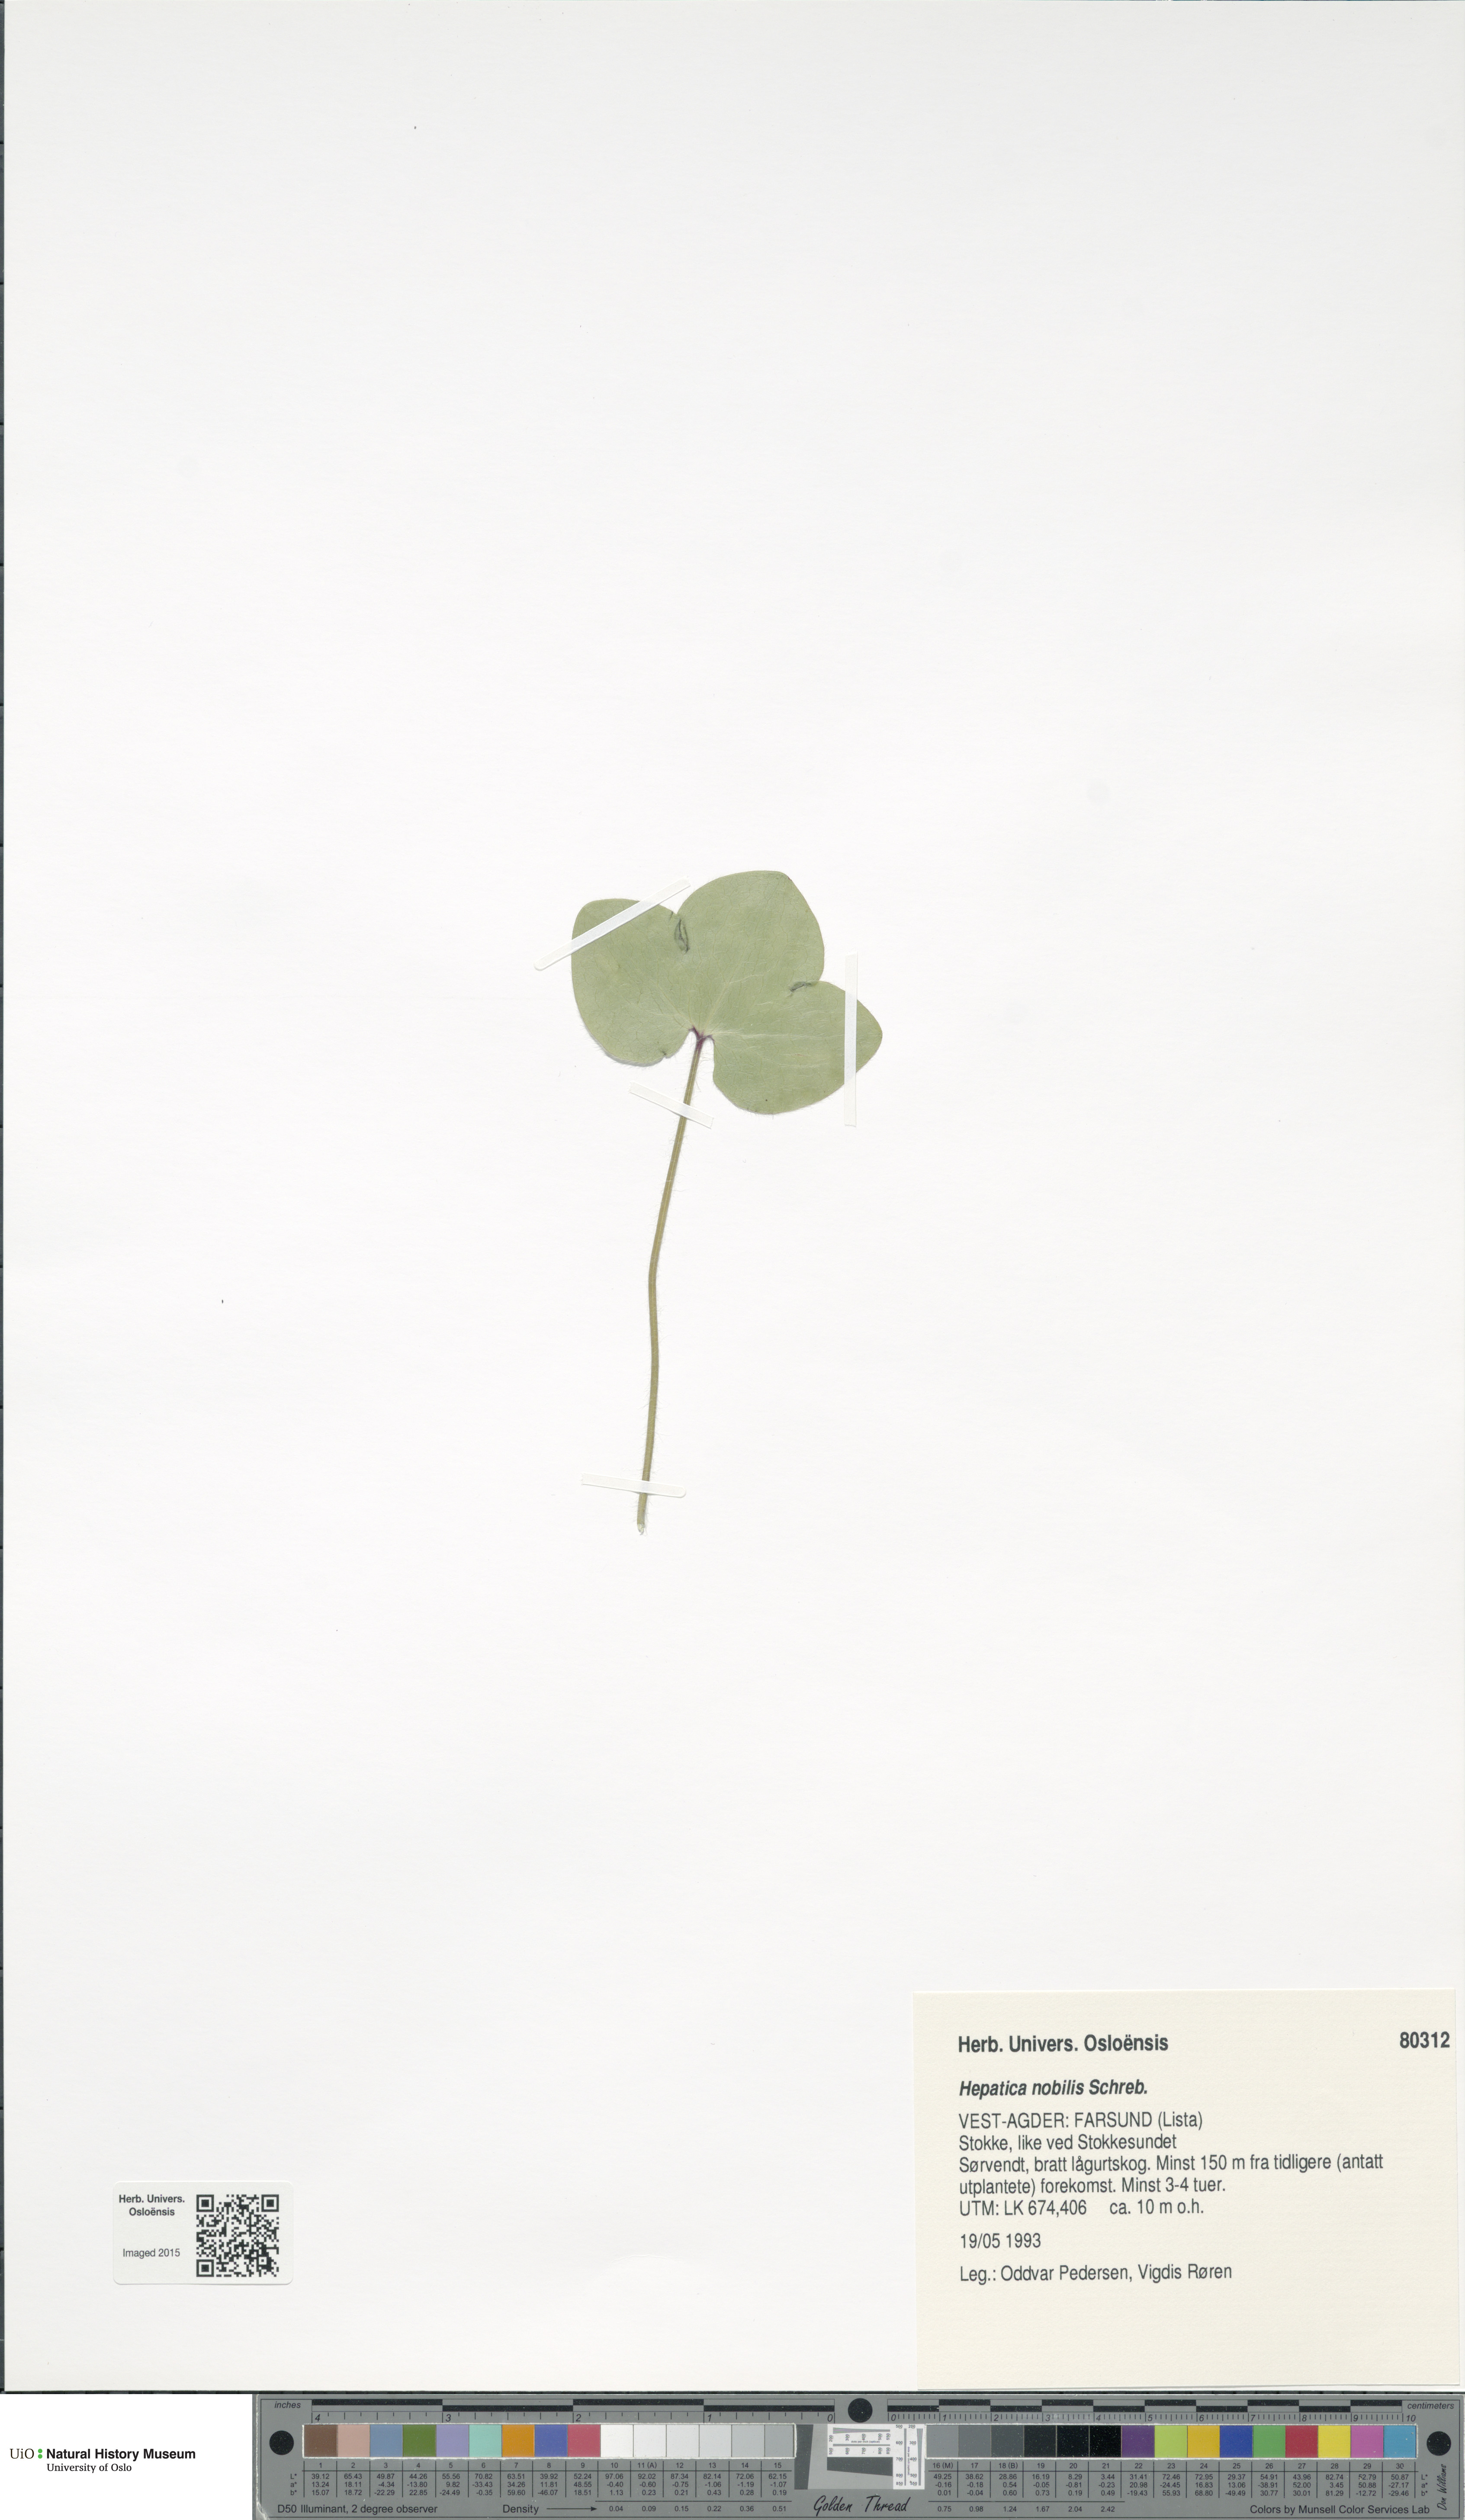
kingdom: Plantae
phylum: Tracheophyta
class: Magnoliopsida
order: Ranunculales
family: Ranunculaceae
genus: Hepatica
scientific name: Hepatica nobilis
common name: Liverleaf
